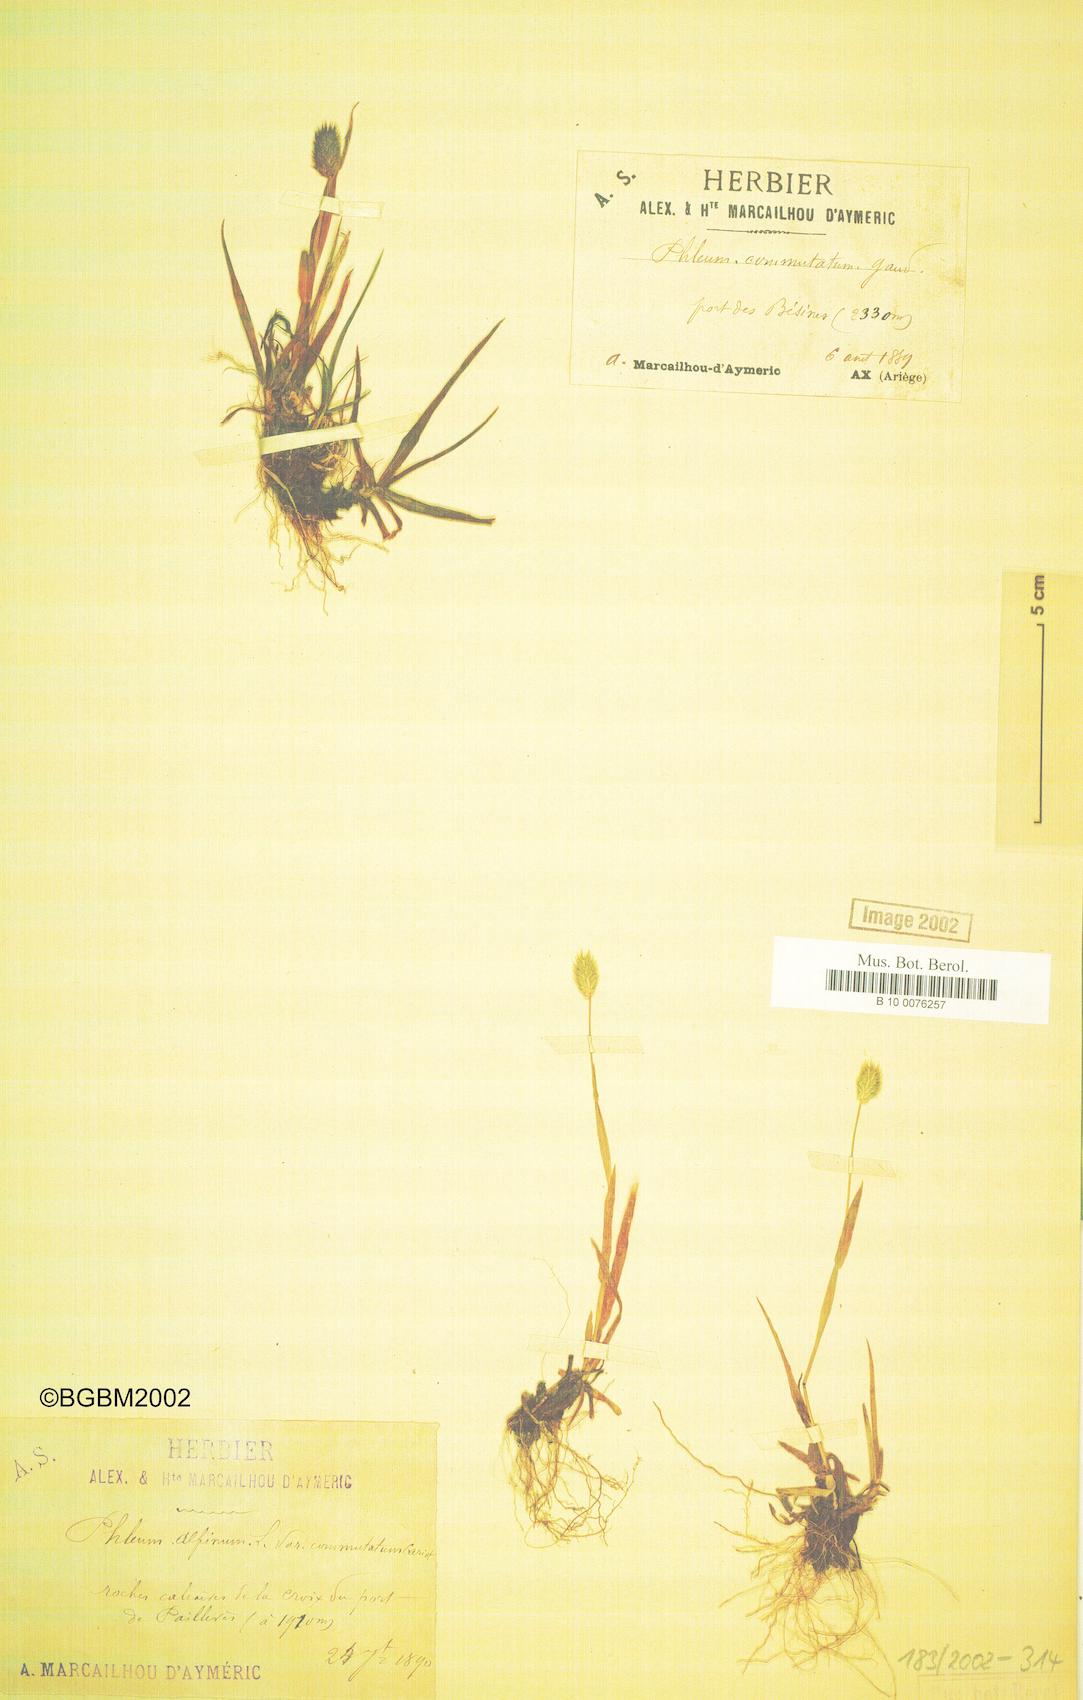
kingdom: Plantae
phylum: Tracheophyta
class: Liliopsida
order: Poales
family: Poaceae
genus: Phleum
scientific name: Phleum alpinum
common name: Alpine cat's-tail
